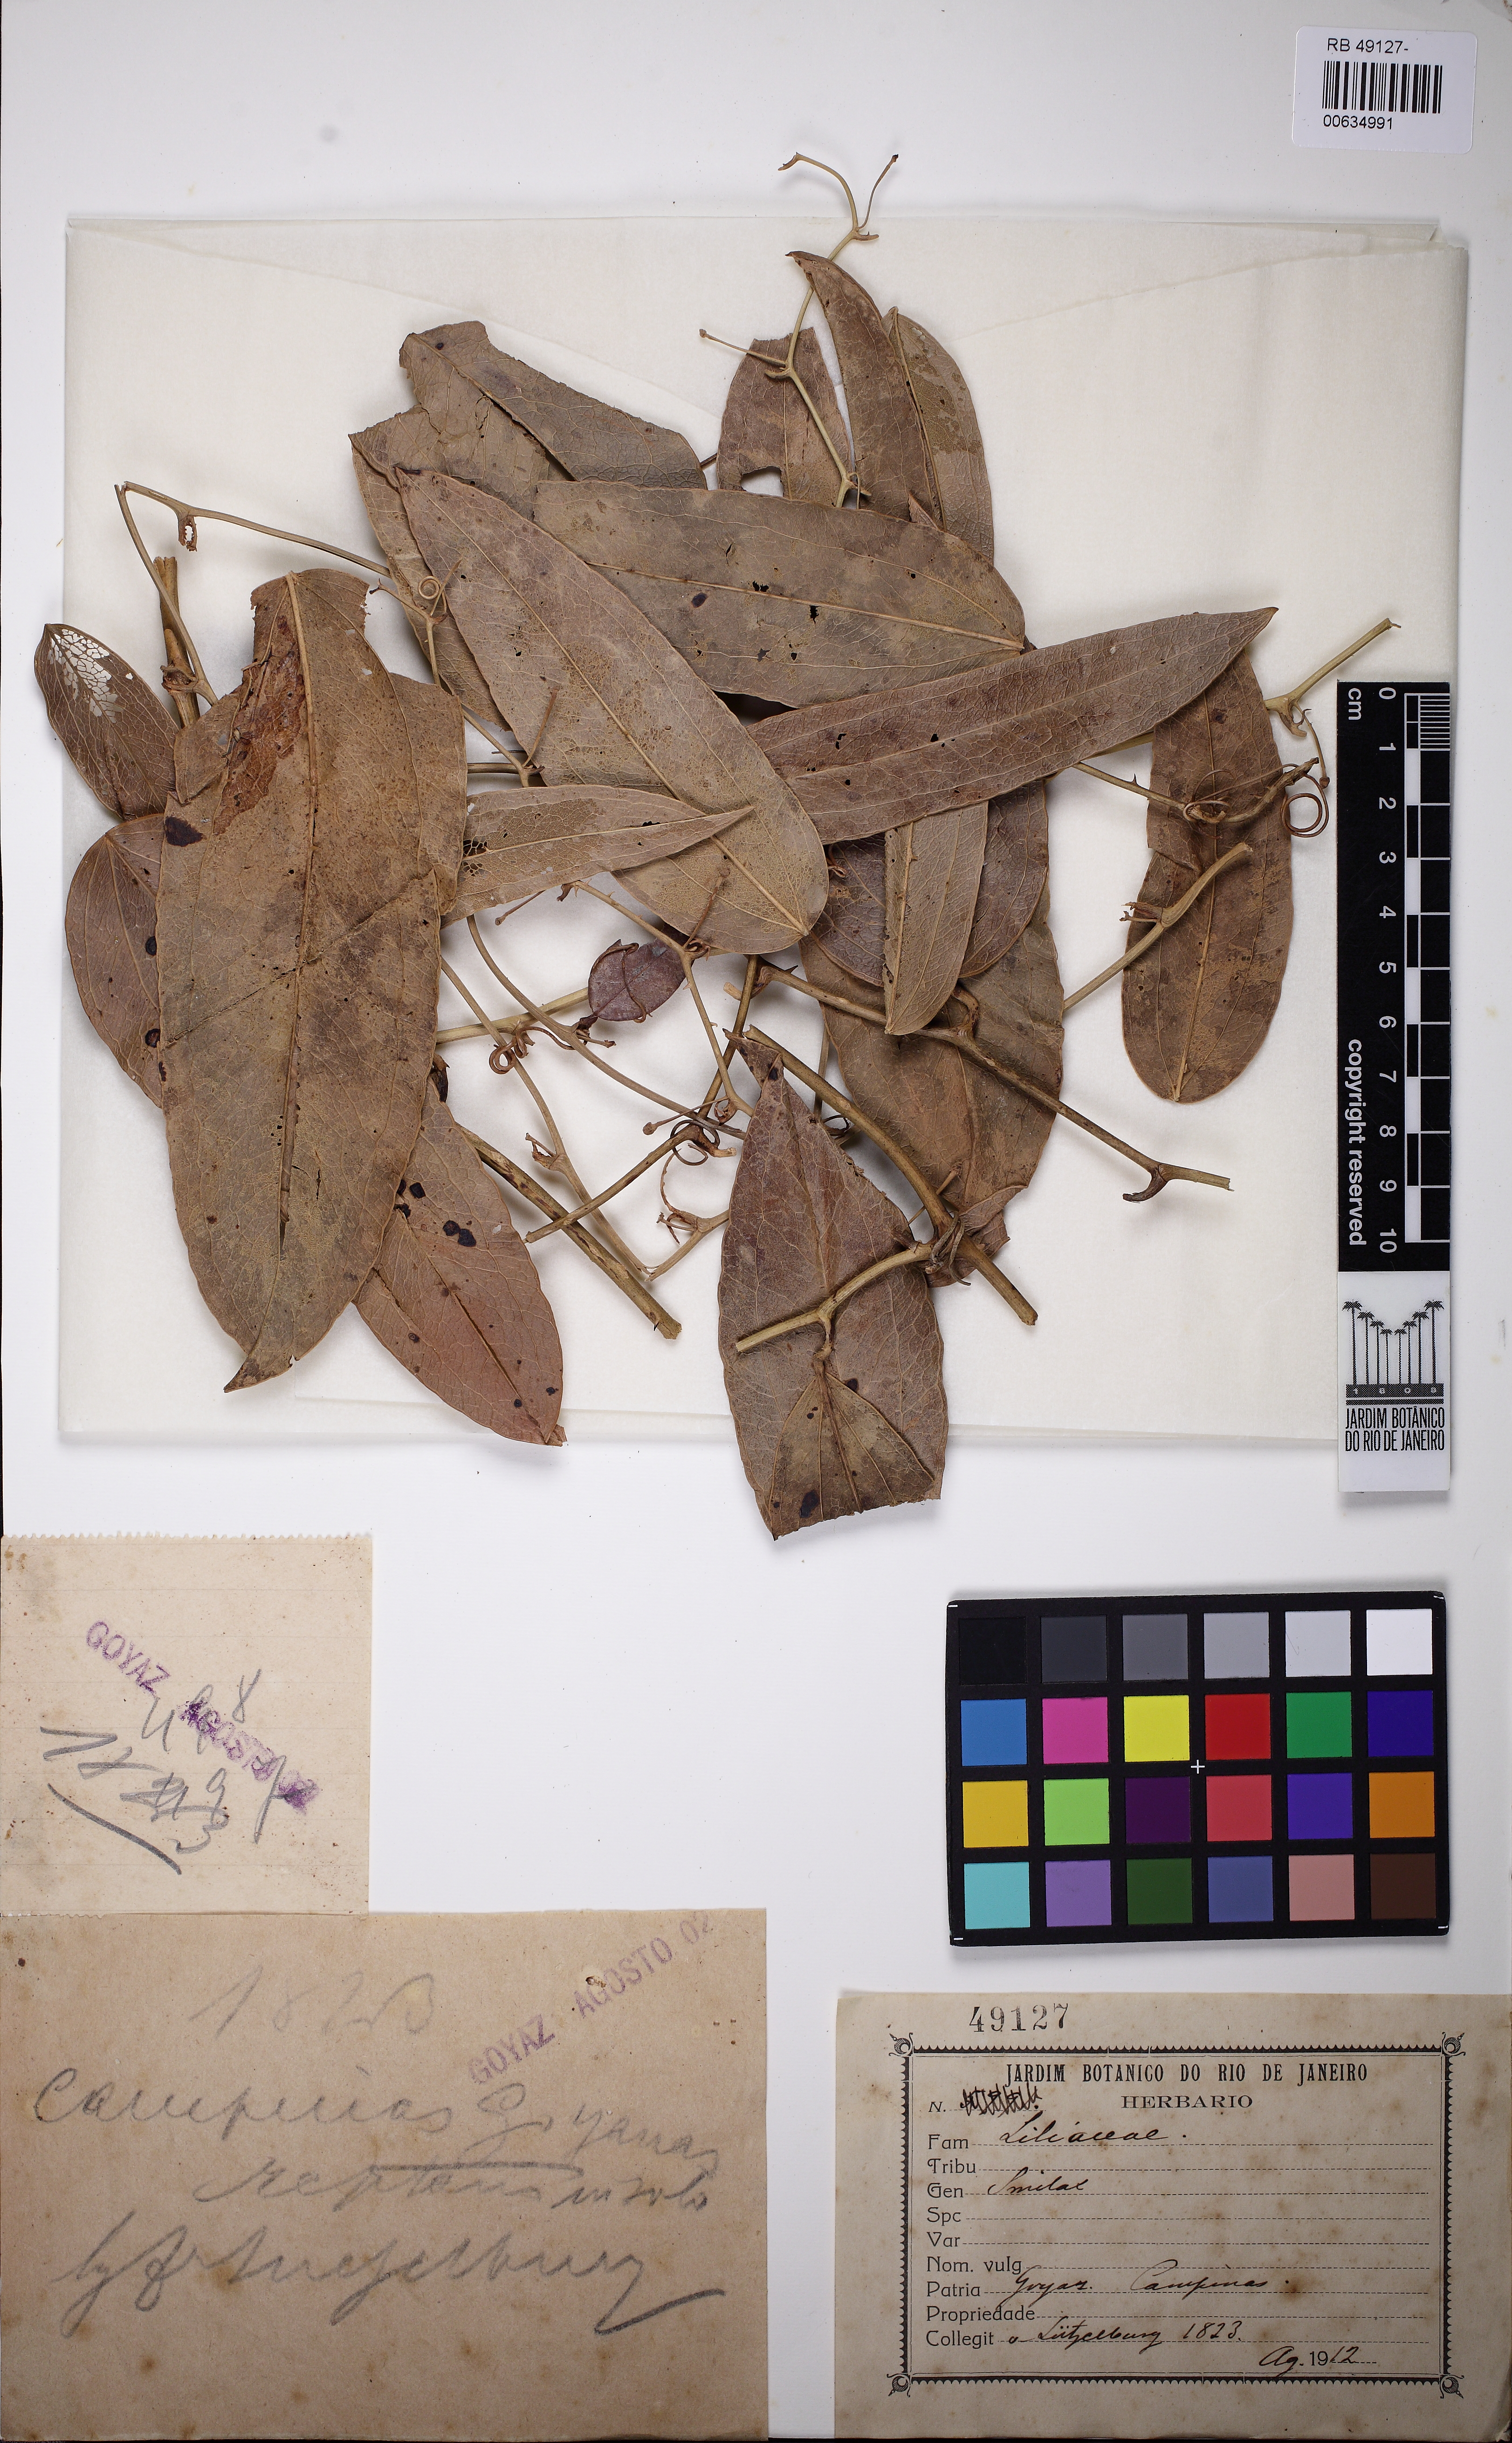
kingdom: Plantae
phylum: Tracheophyta
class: Liliopsida
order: Liliales
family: Smilacaceae
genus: Smilax
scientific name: Smilax
